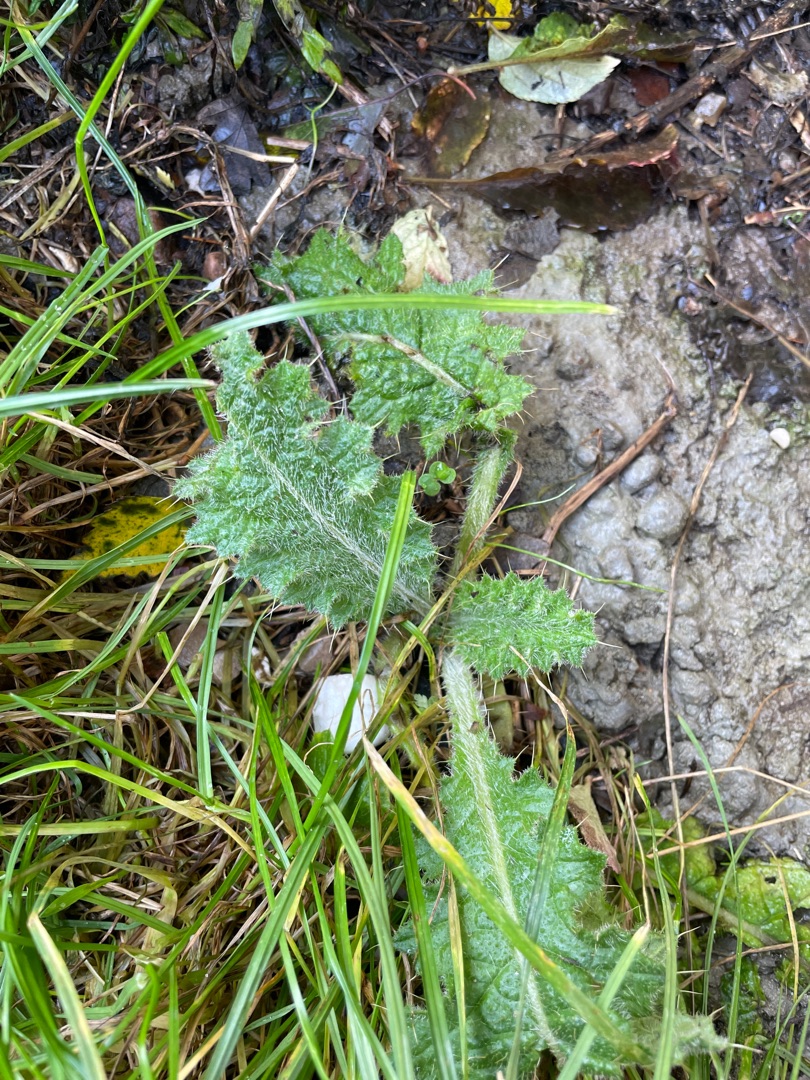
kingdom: Plantae
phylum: Tracheophyta
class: Magnoliopsida
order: Asterales
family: Asteraceae
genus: Cirsium
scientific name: Cirsium vulgare
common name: Horse-tidsel
